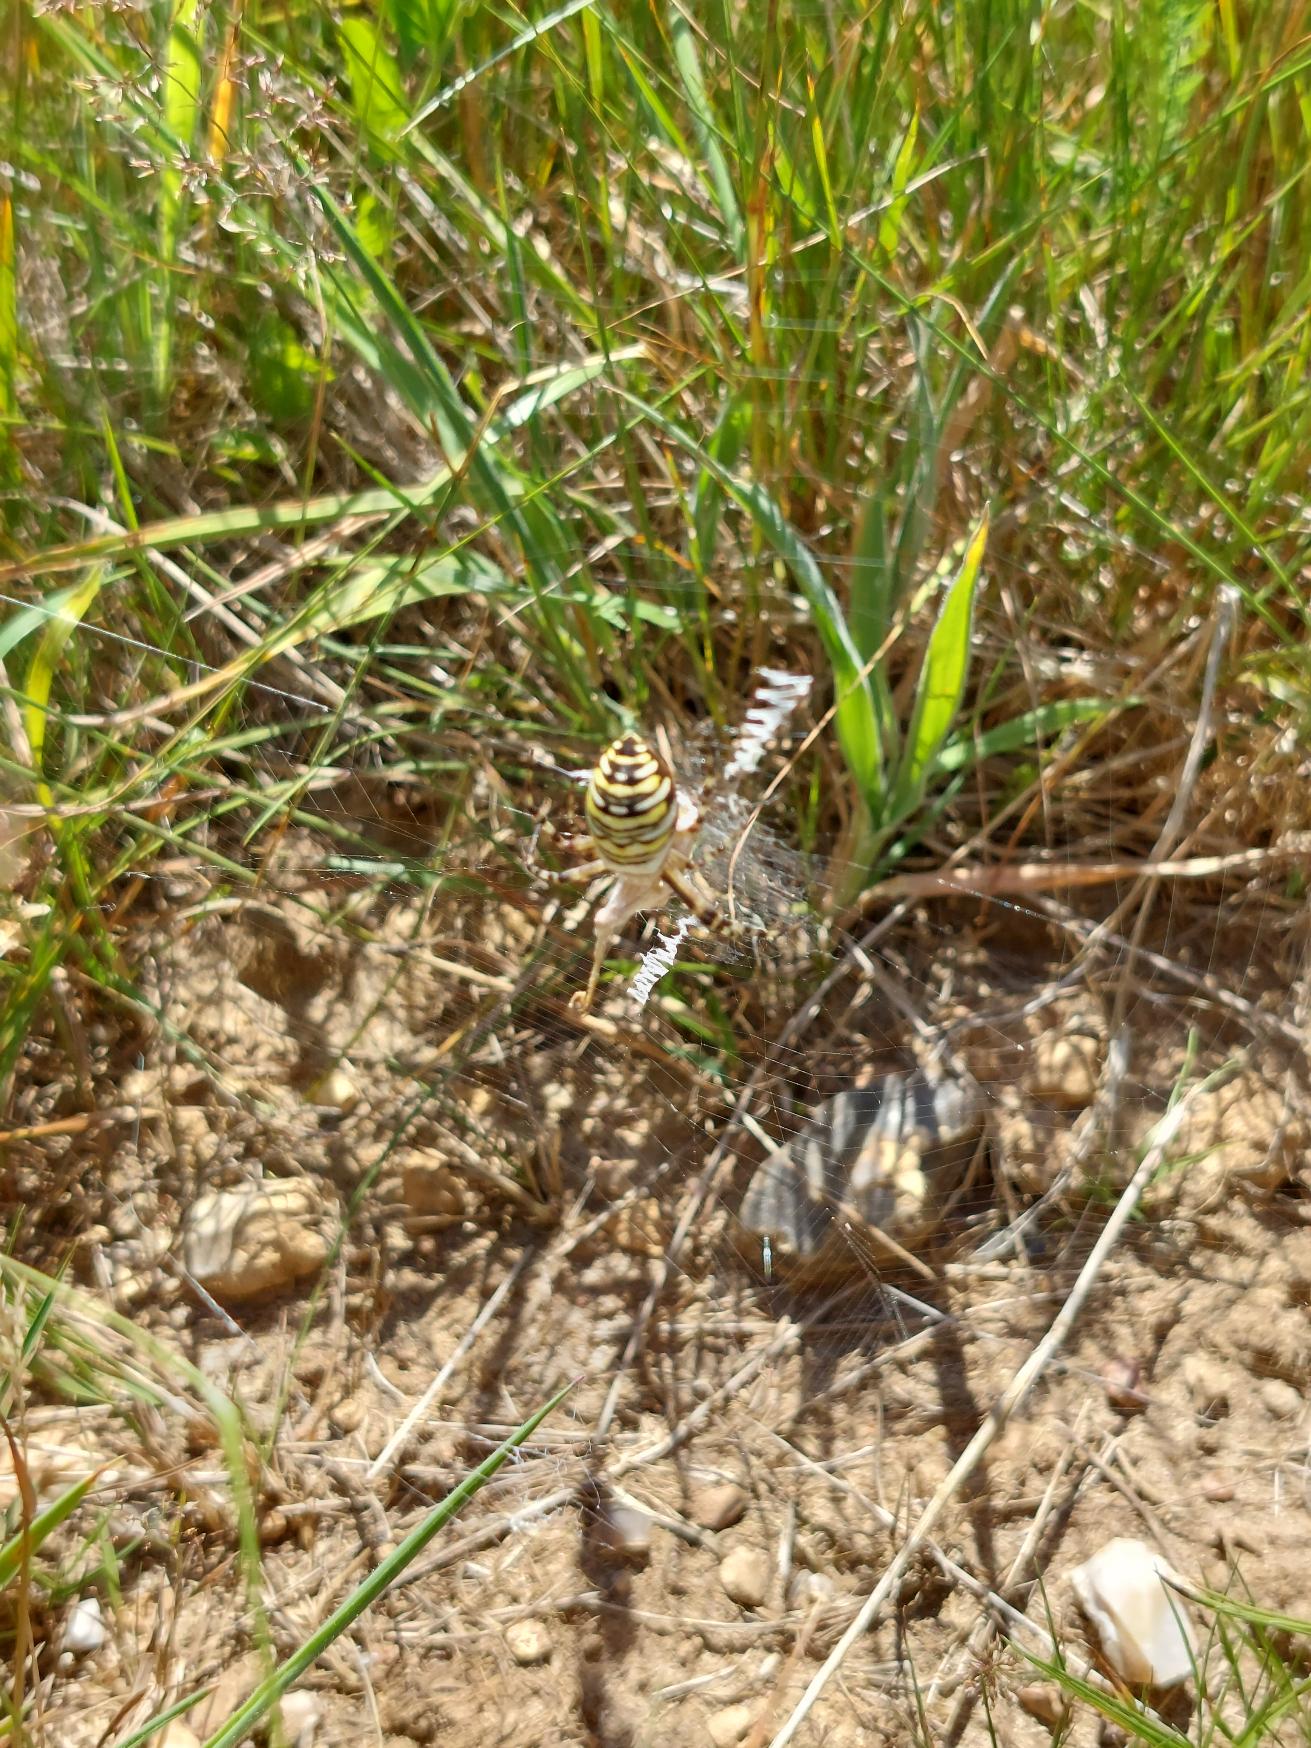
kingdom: Animalia
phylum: Arthropoda
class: Arachnida
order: Araneae
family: Araneidae
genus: Argiope
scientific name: Argiope bruennichi
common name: Hvepseedderkop
